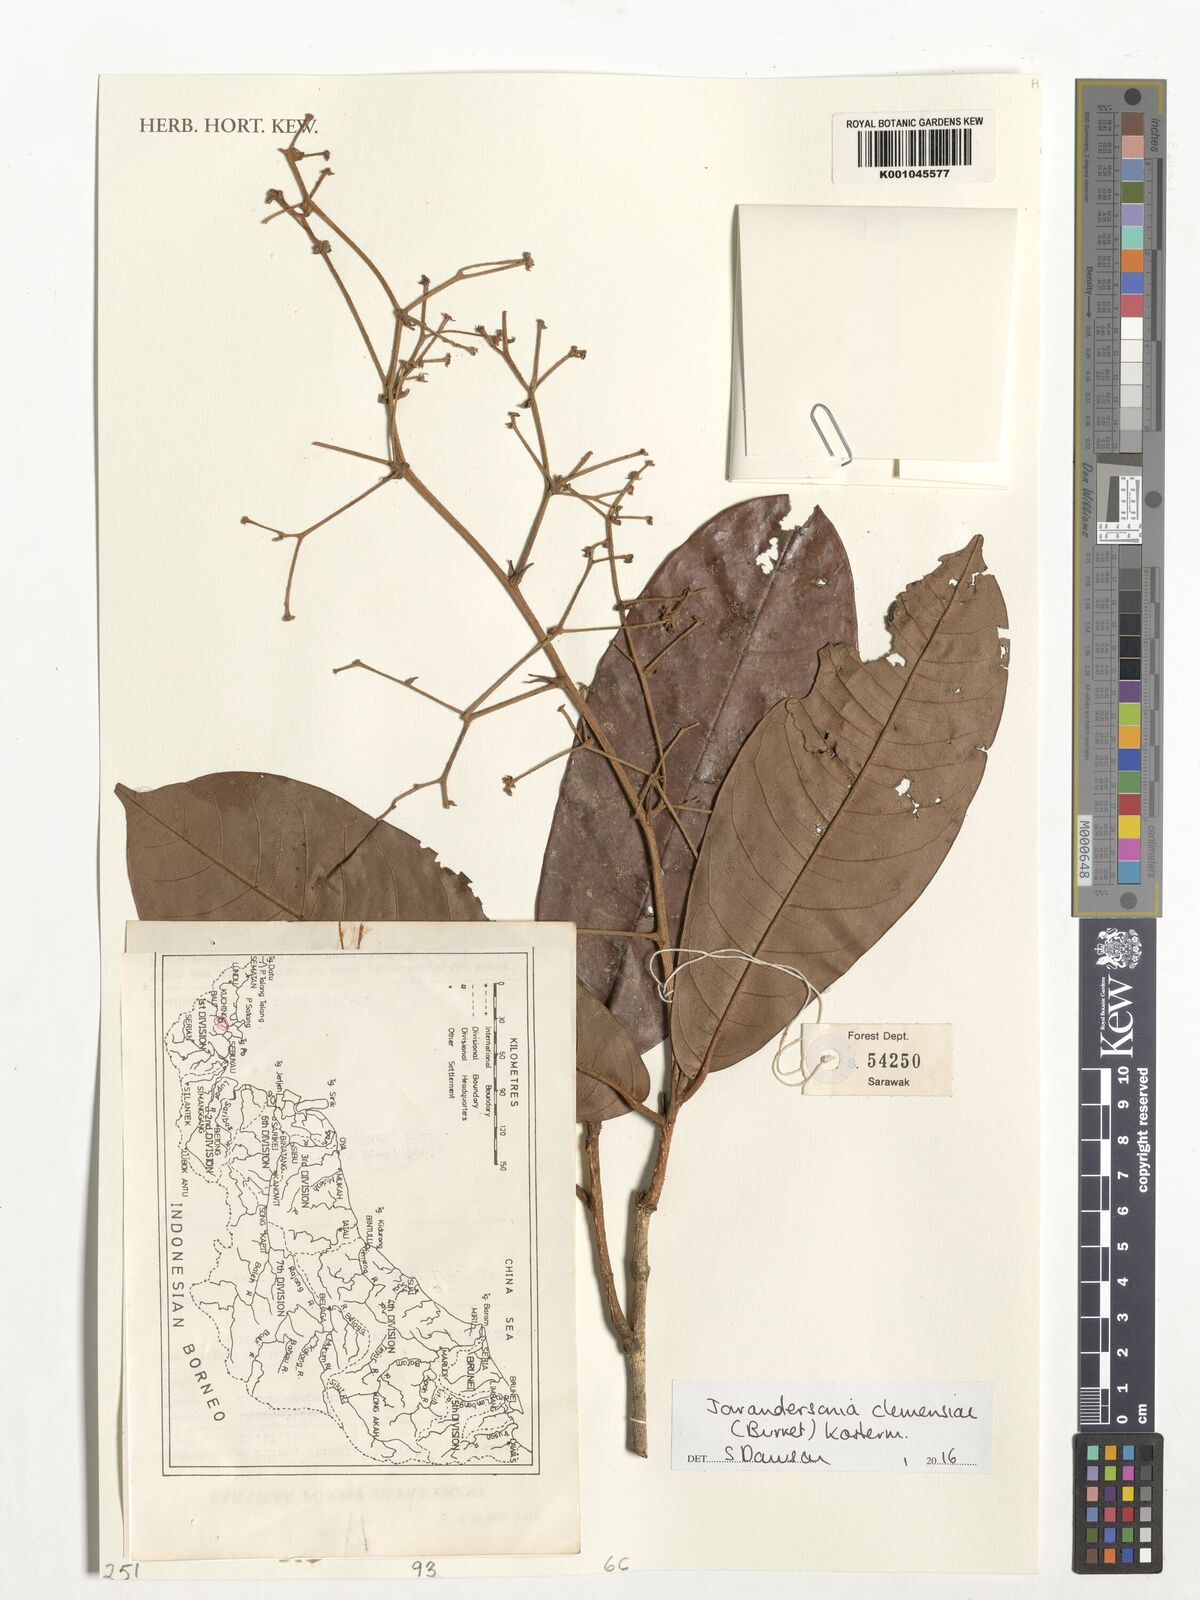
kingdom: Plantae
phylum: Tracheophyta
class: Magnoliopsida
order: Malvales
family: Malvaceae
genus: Jarandersonia
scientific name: Jarandersonia clemensiae
